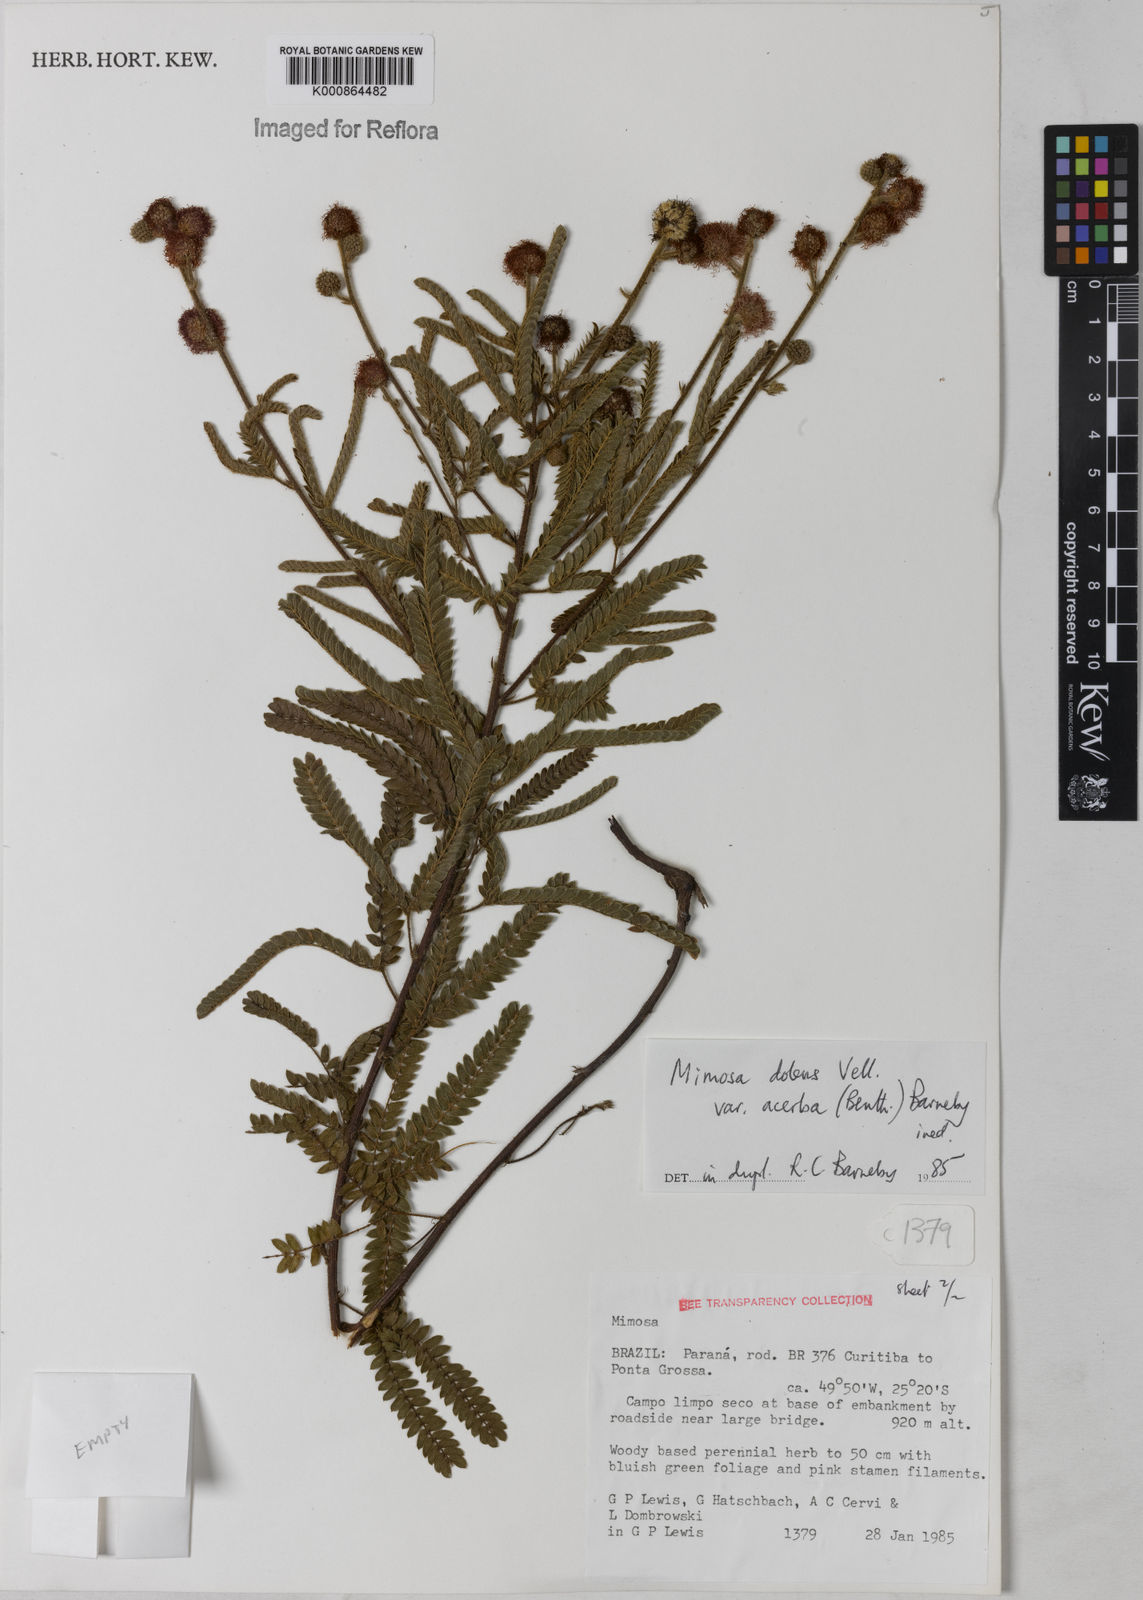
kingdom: Plantae
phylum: Tracheophyta
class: Magnoliopsida
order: Fabales
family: Fabaceae
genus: Mimosa
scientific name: Mimosa dolens
